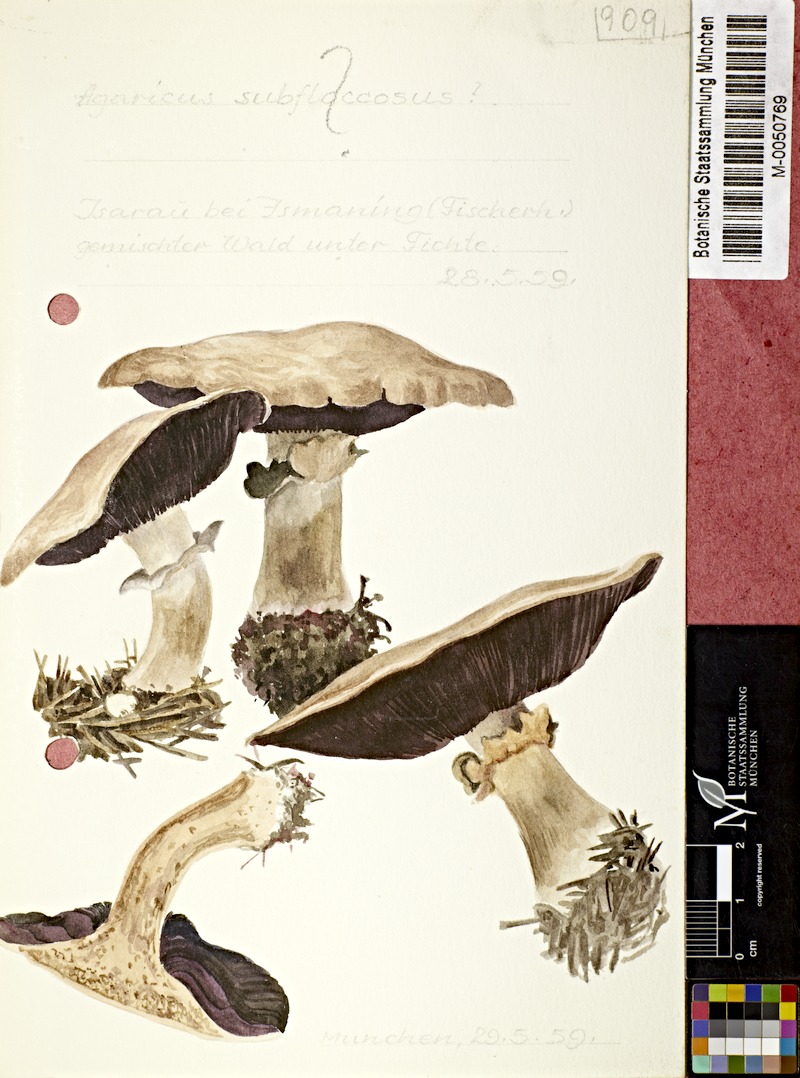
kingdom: Fungi
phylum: Basidiomycota
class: Agaricomycetes
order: Agaricales
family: Agaricaceae
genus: Agaricus
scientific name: Agaricus subfloccosus
